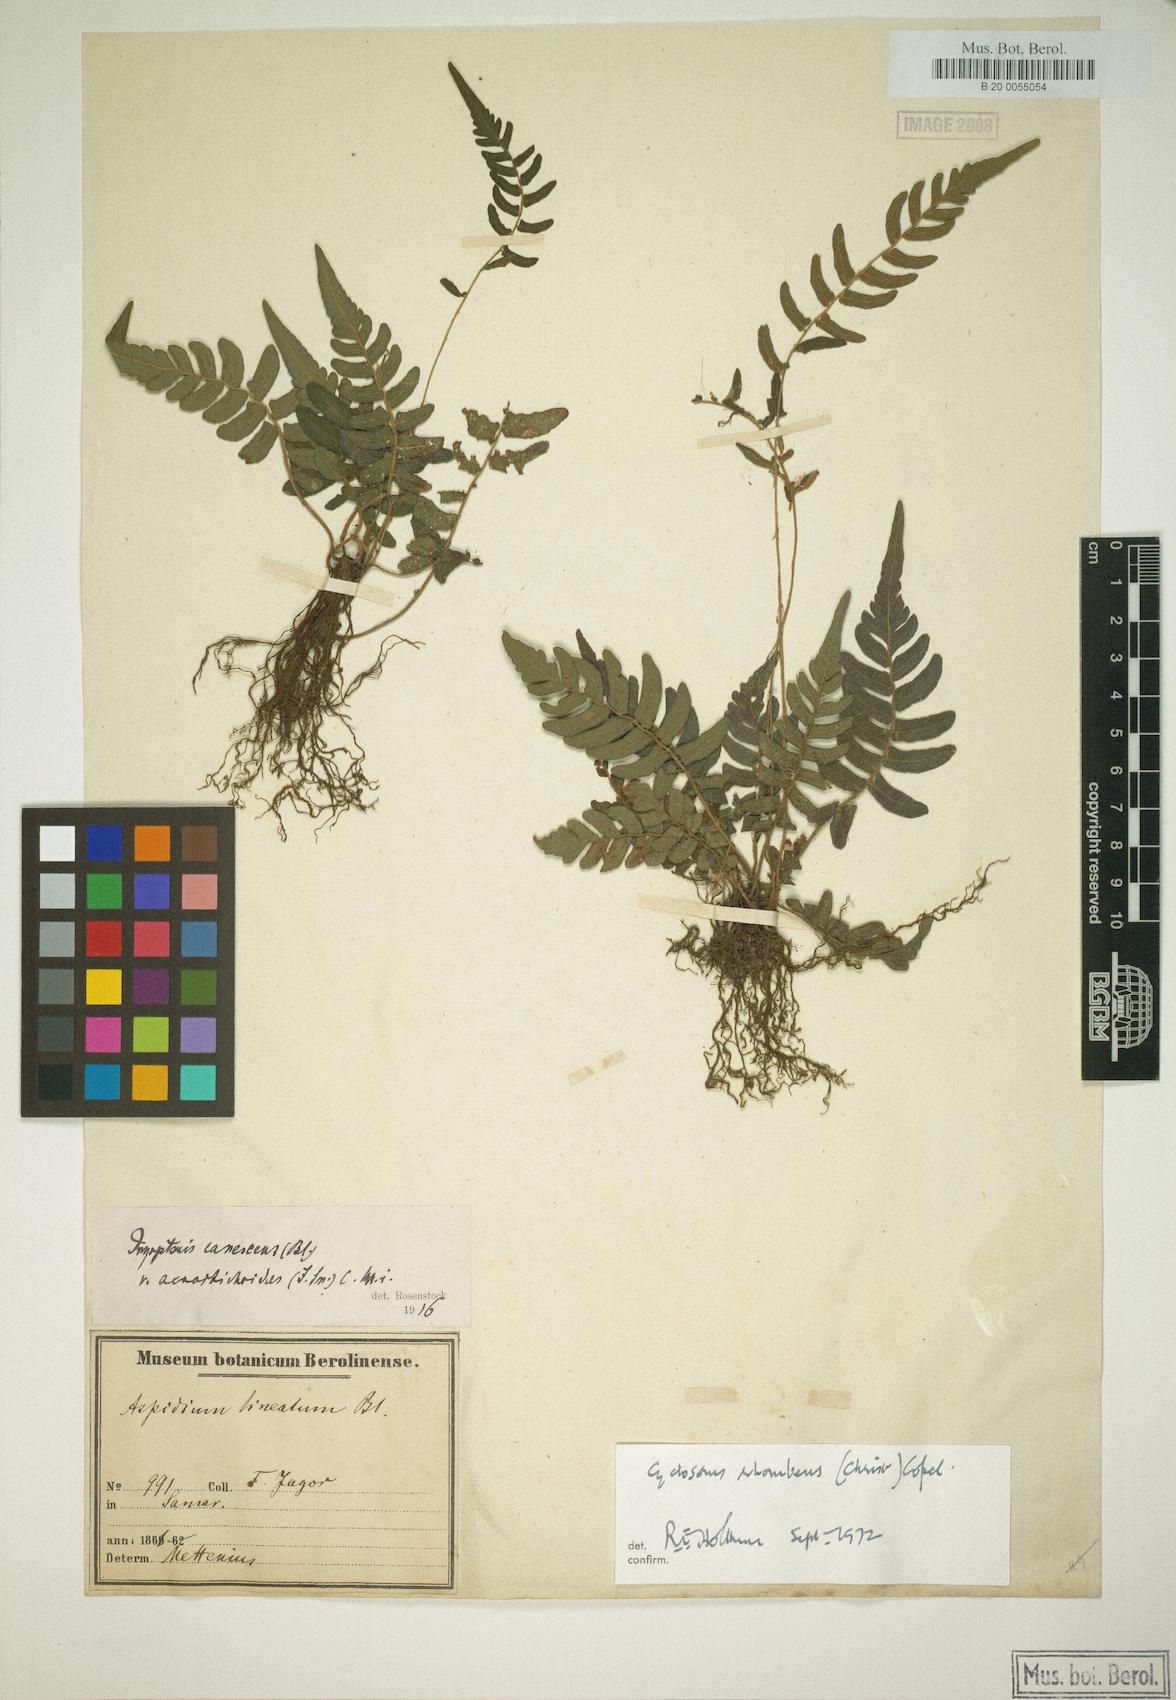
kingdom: Plantae
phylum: Tracheophyta
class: Polypodiopsida
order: Polypodiales
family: Thelypteridaceae
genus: Sphaerostephanos
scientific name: Sphaerostephanos diversilobus
